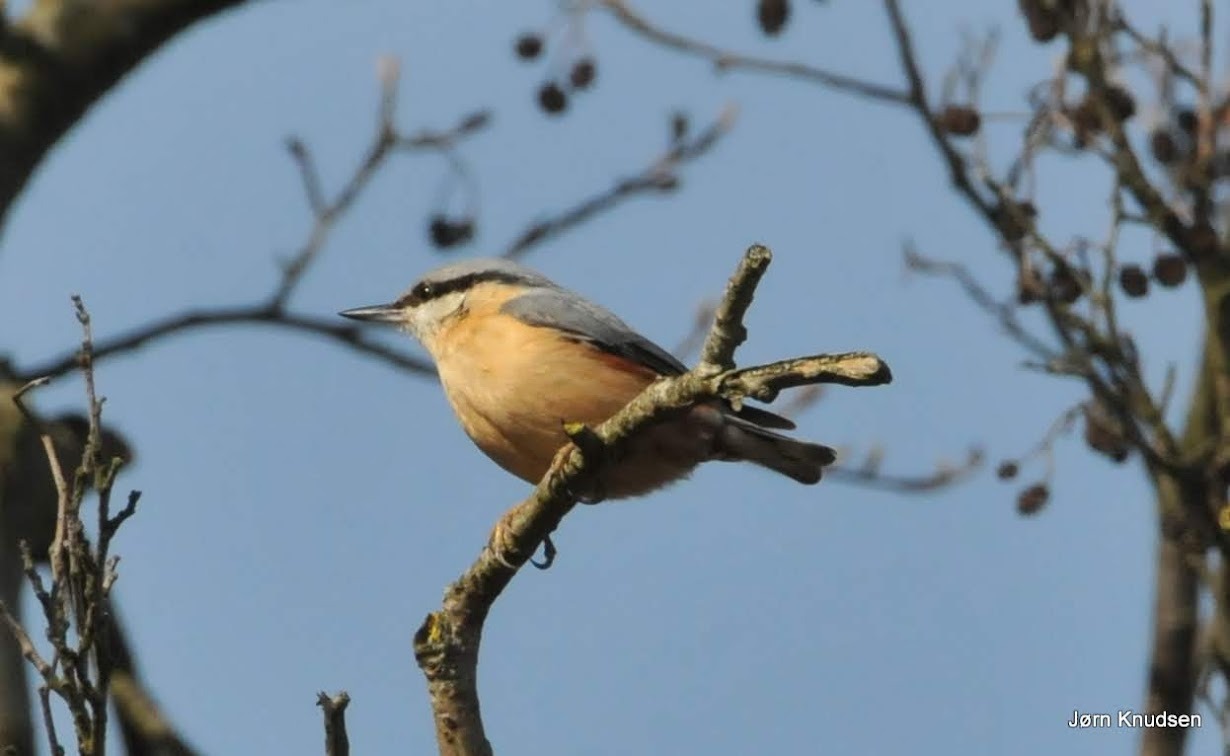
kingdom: Animalia
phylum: Chordata
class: Aves
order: Passeriformes
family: Sittidae
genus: Sitta
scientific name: Sitta europaea
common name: Spætmejse
